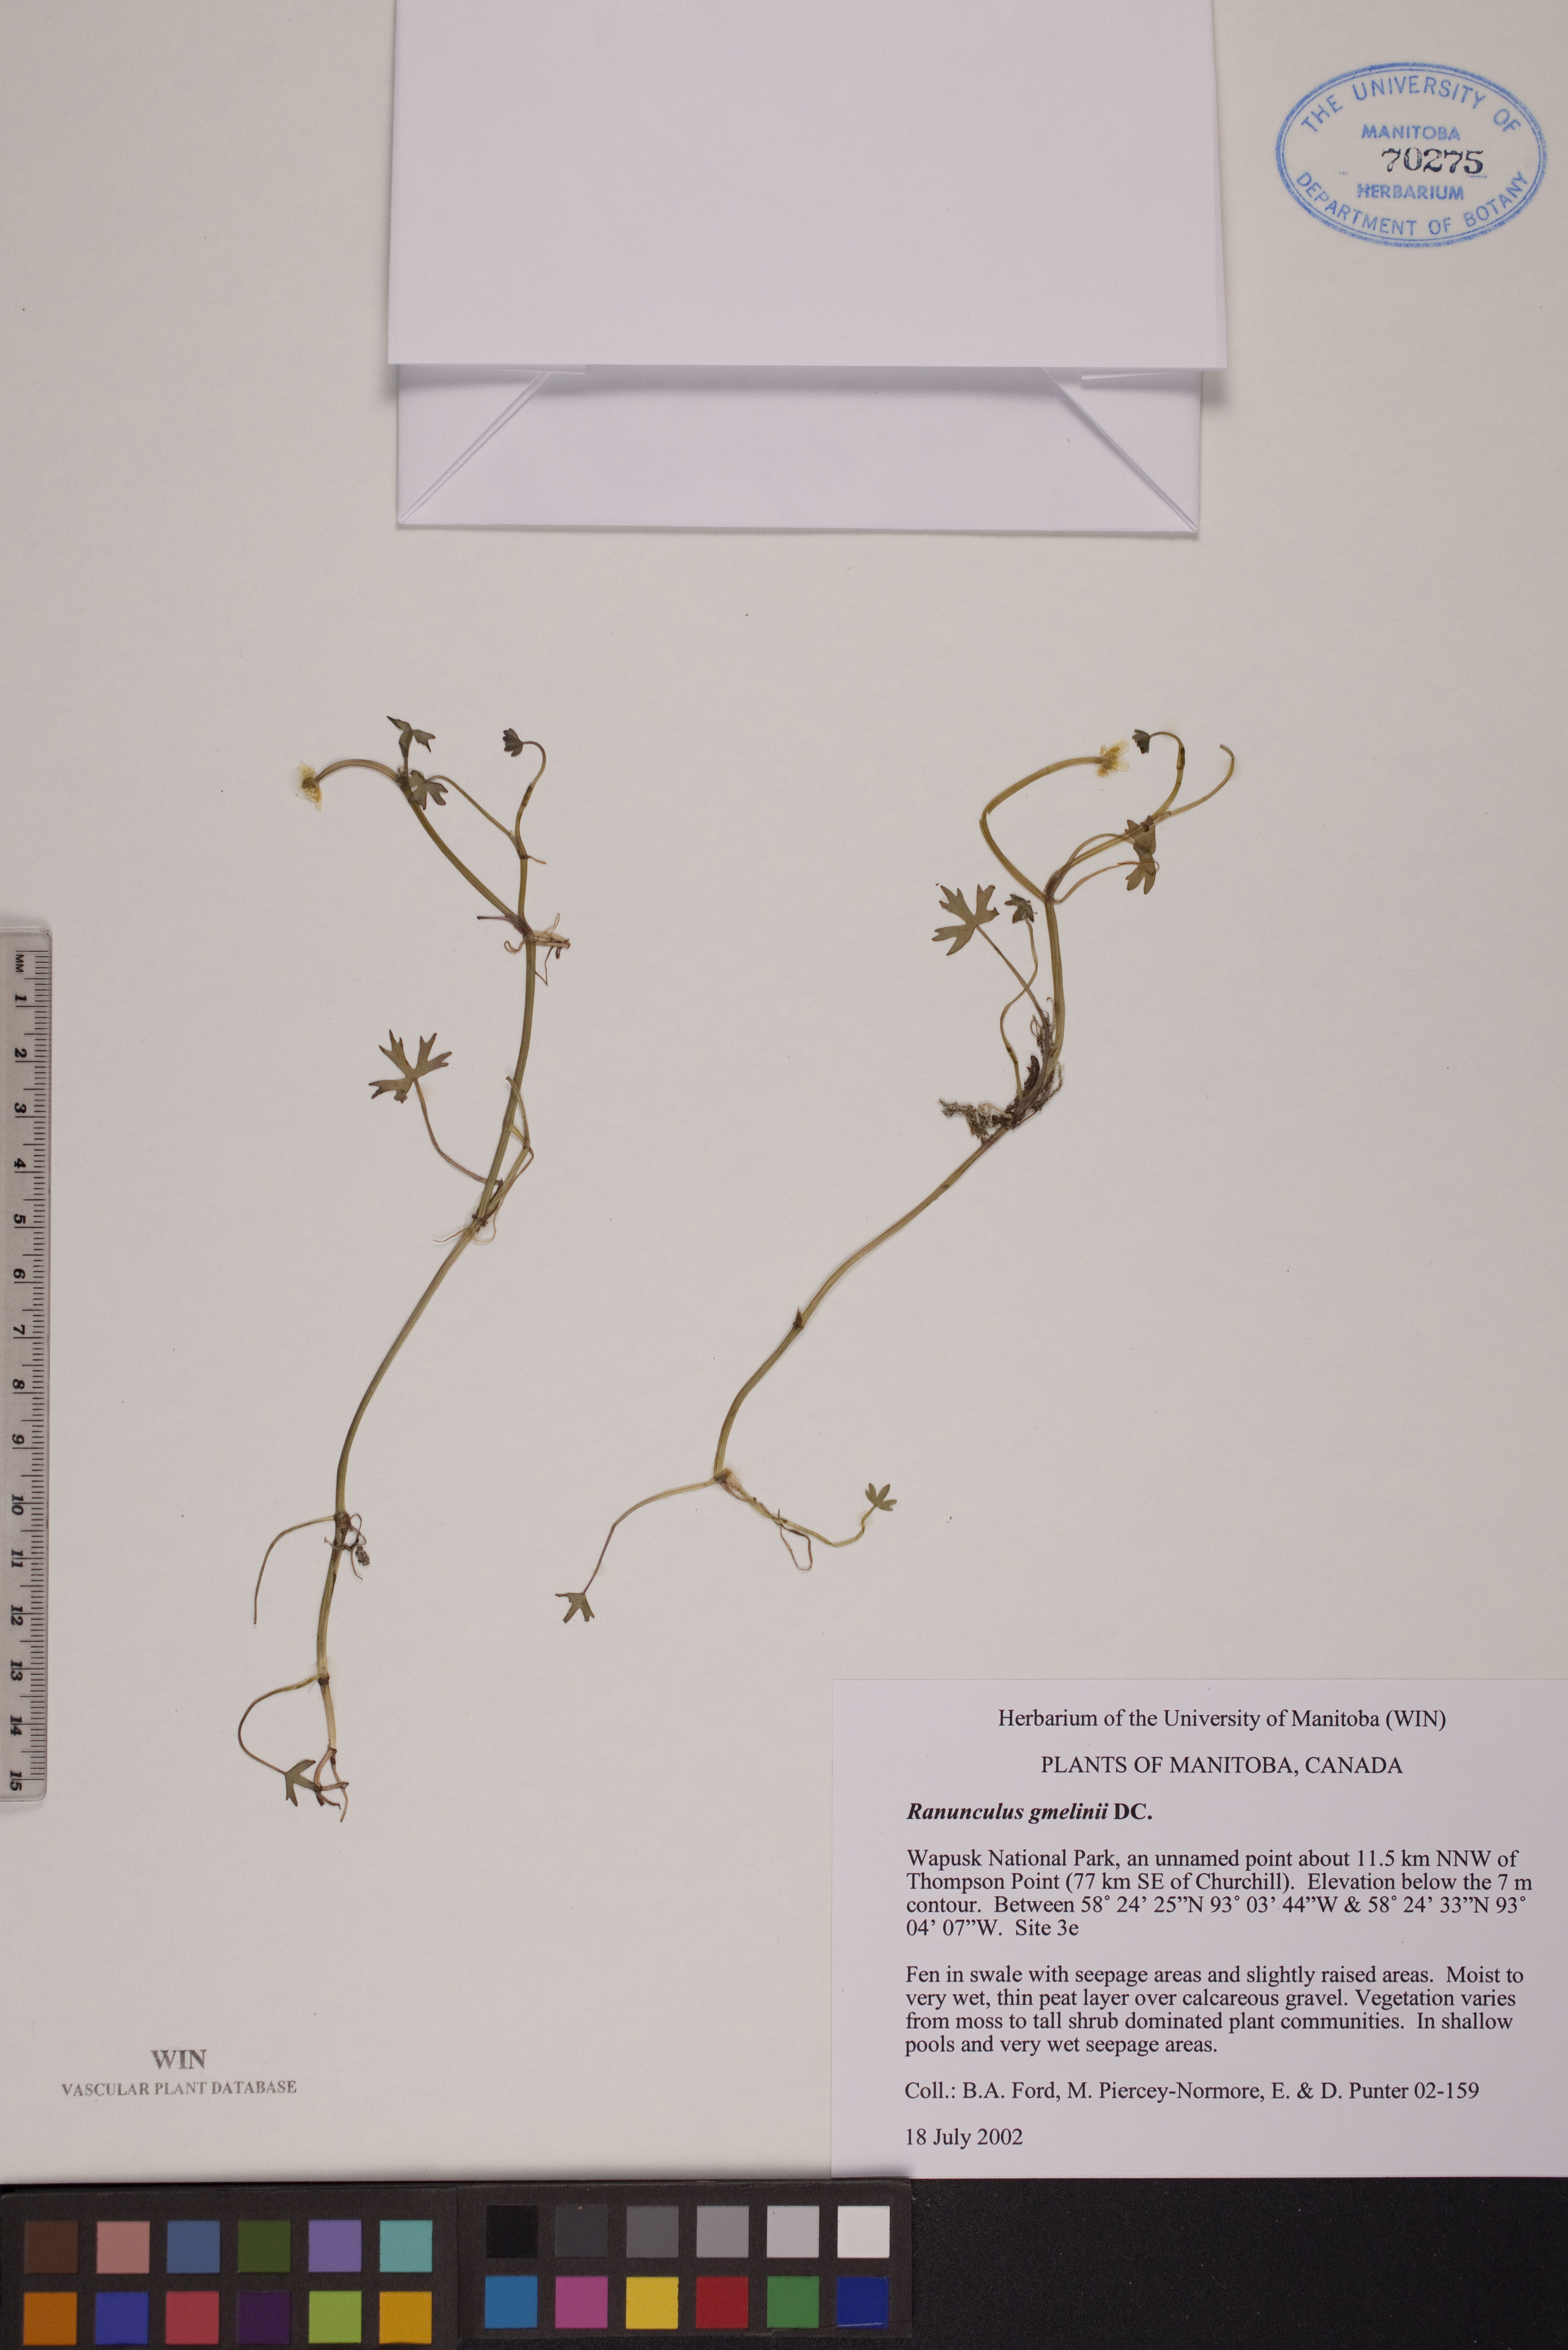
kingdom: Plantae
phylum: Tracheophyta
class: Magnoliopsida
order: Ranunculales
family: Ranunculaceae
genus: Ranunculus
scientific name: Ranunculus gmelinii
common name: Gmelin's buttercup
